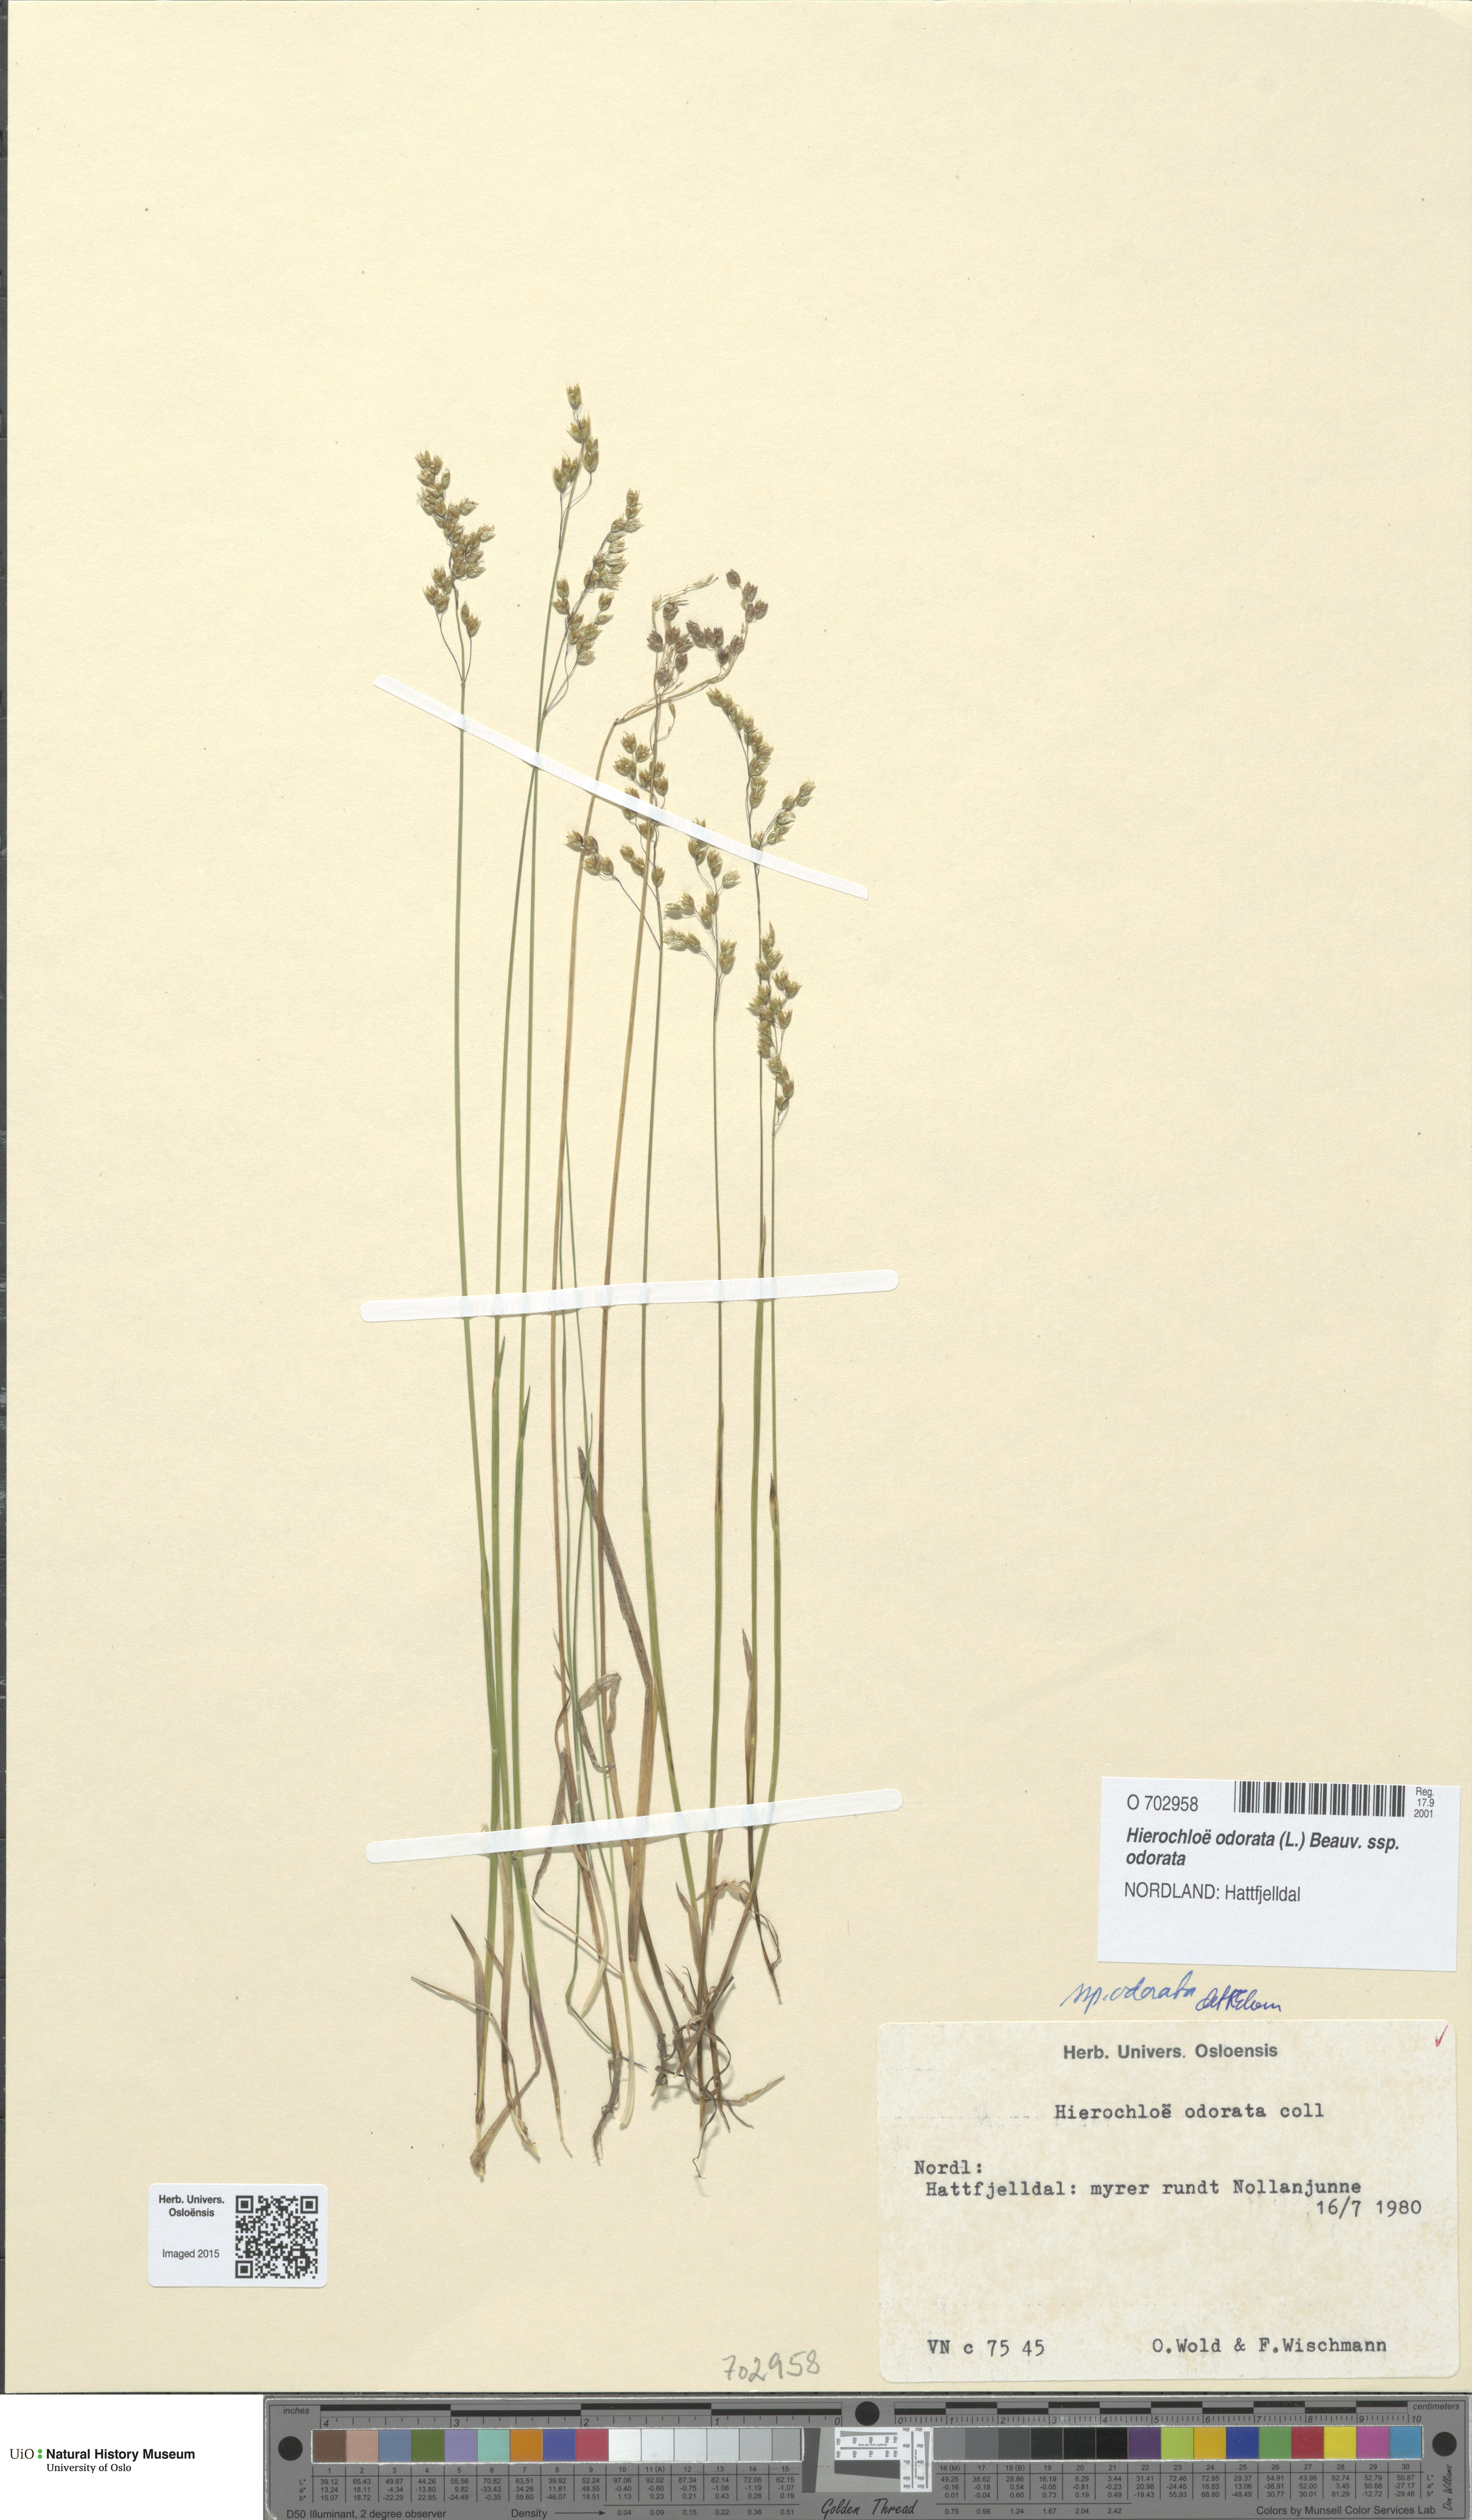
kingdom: Plantae
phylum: Tracheophyta
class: Liliopsida
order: Poales
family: Poaceae
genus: Anthoxanthum
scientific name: Anthoxanthum nitens
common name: Holy grass
